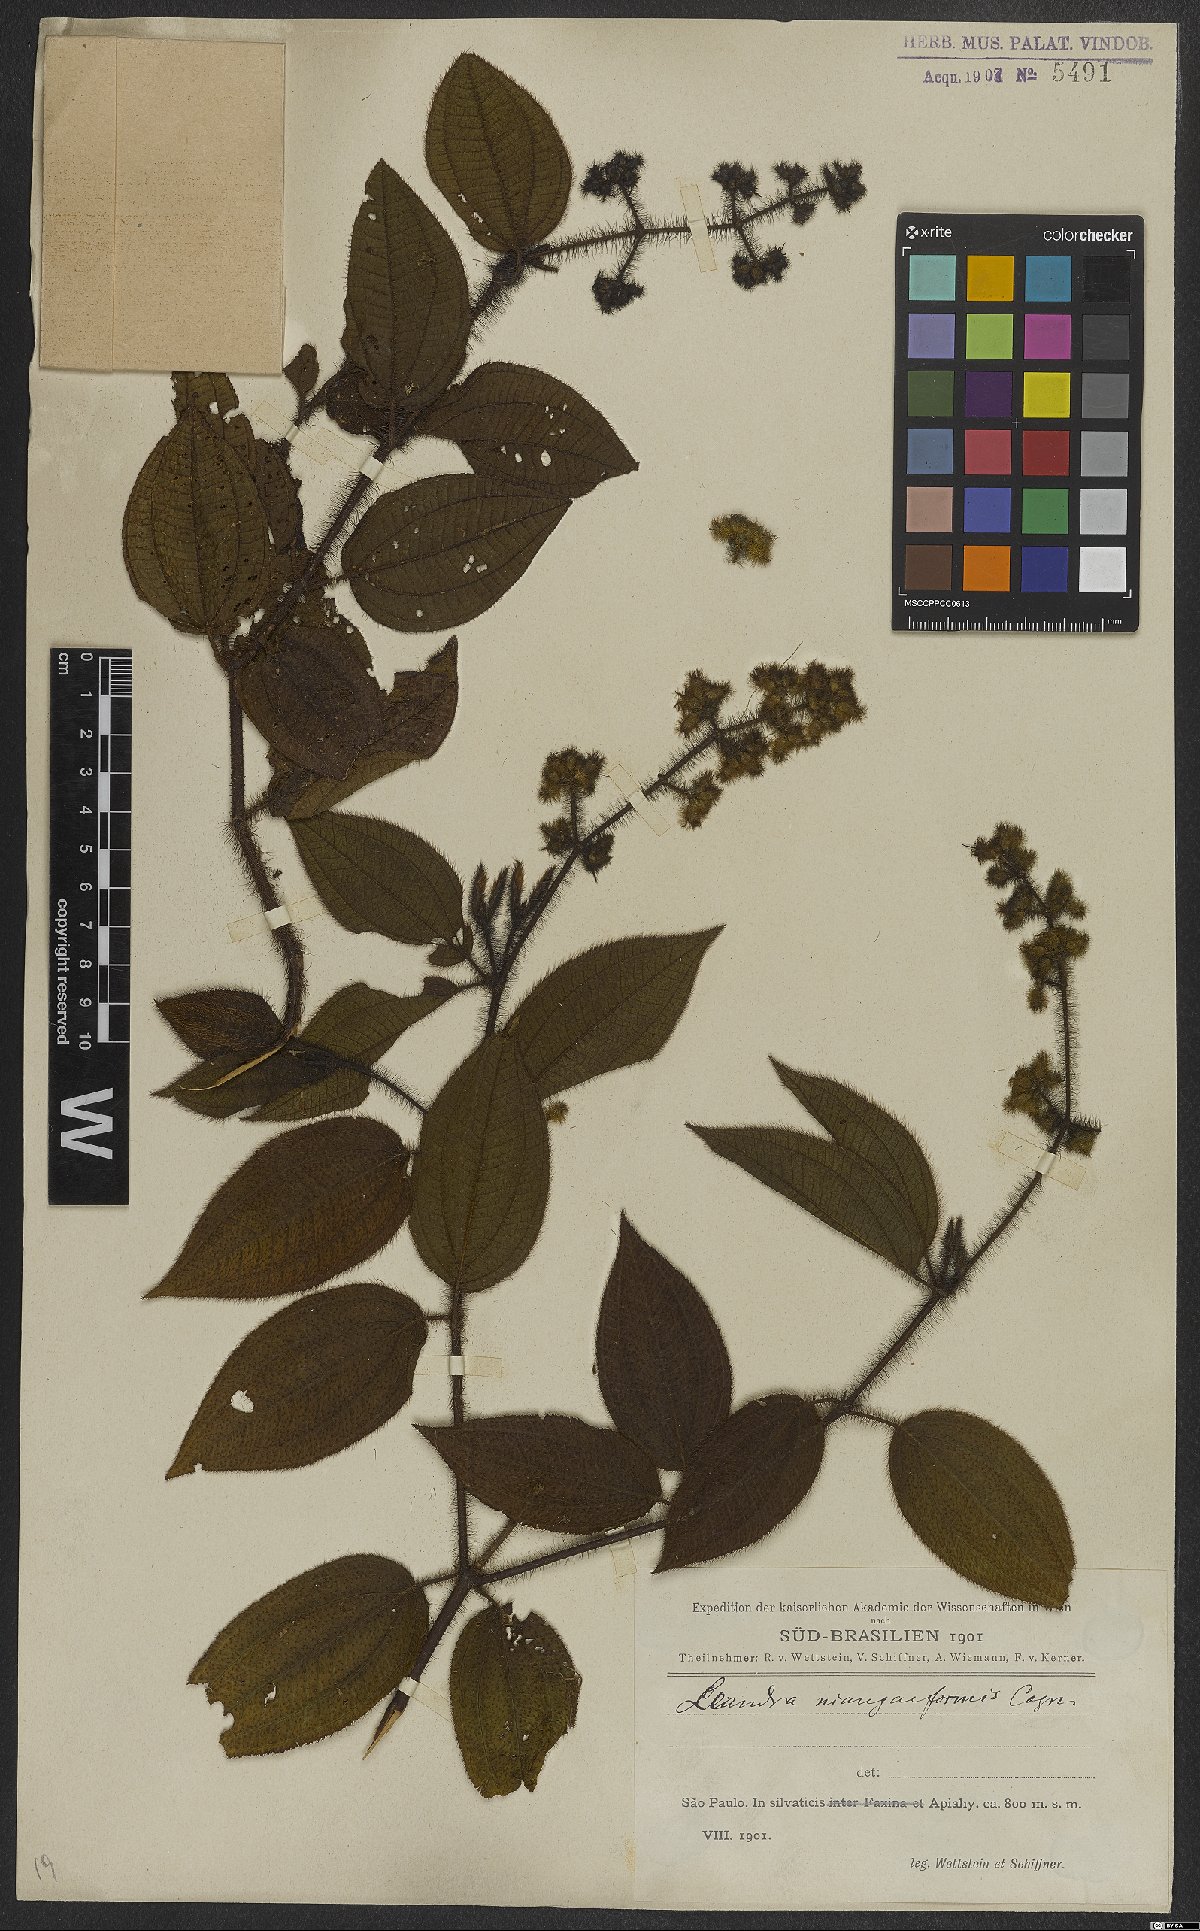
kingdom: Plantae
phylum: Tracheophyta
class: Magnoliopsida
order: Myrtales
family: Melastomataceae
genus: Miconia
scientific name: Miconia niangaeformis
